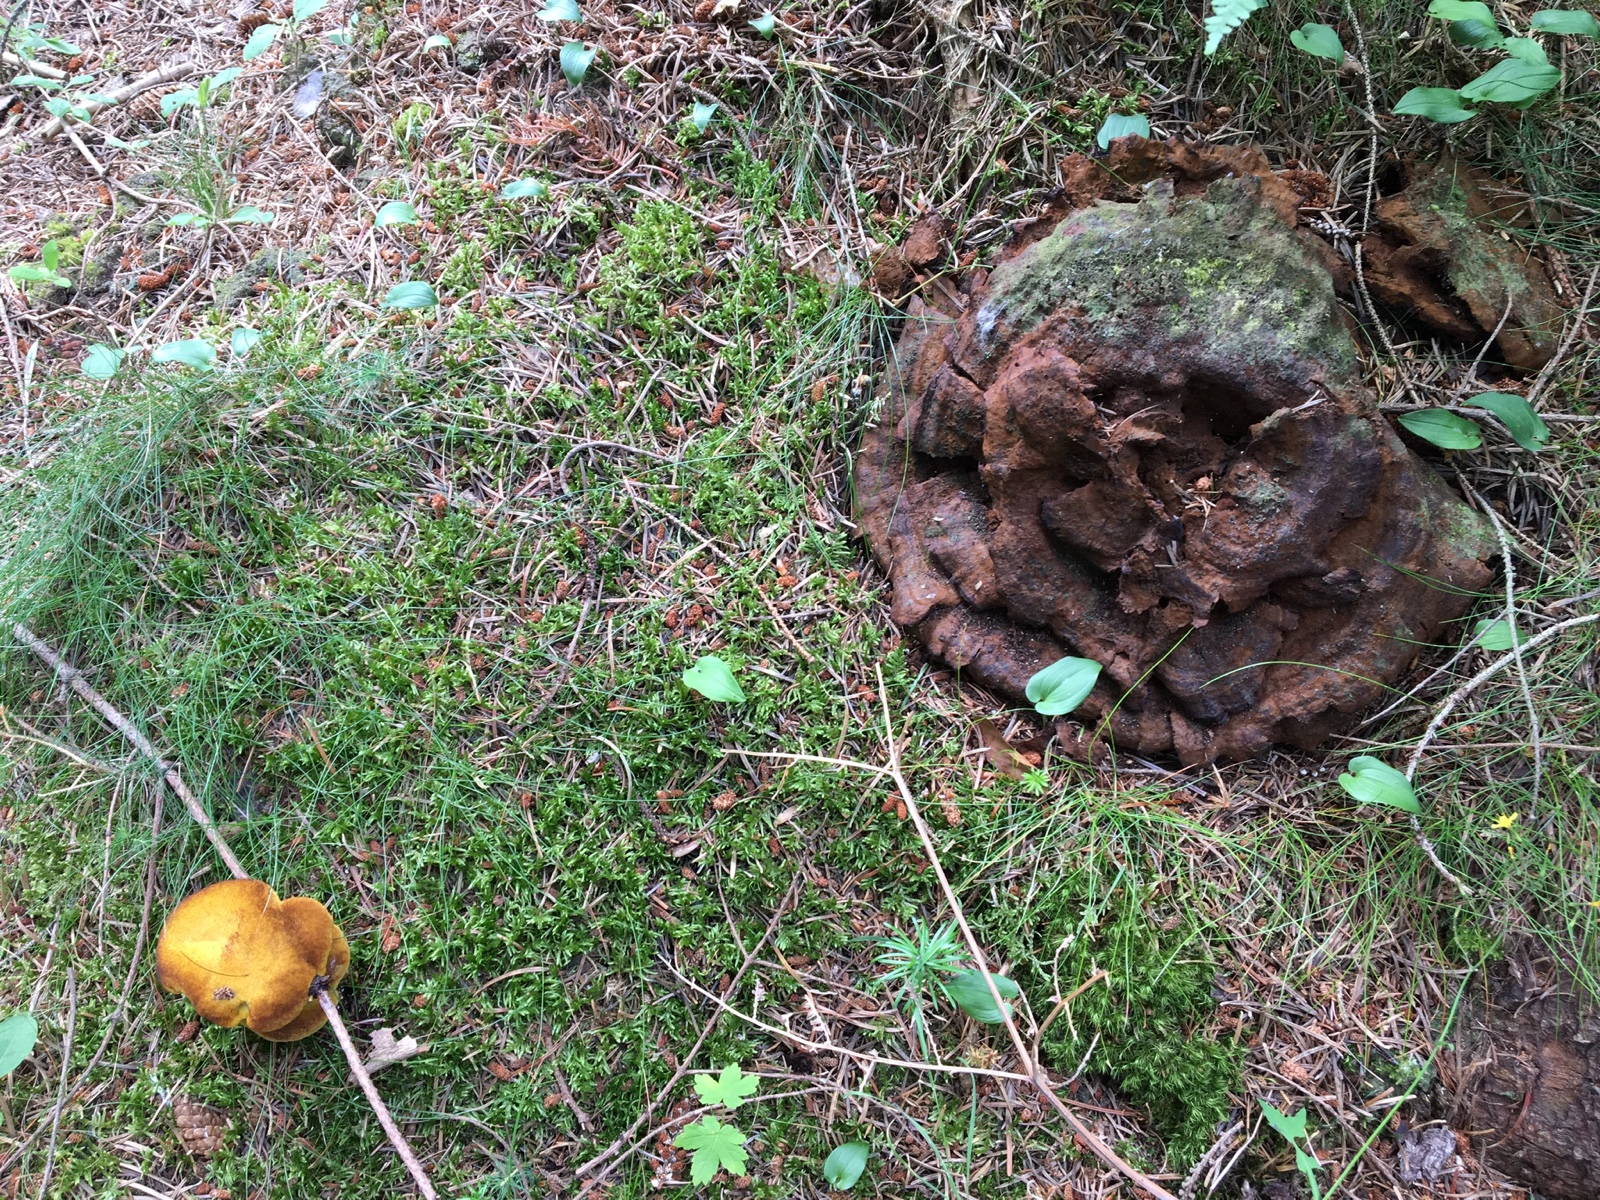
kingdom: Fungi
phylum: Basidiomycota
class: Agaricomycetes
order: Polyporales
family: Laetiporaceae
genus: Phaeolus
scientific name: Phaeolus schweinitzii
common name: brunporesvamp
